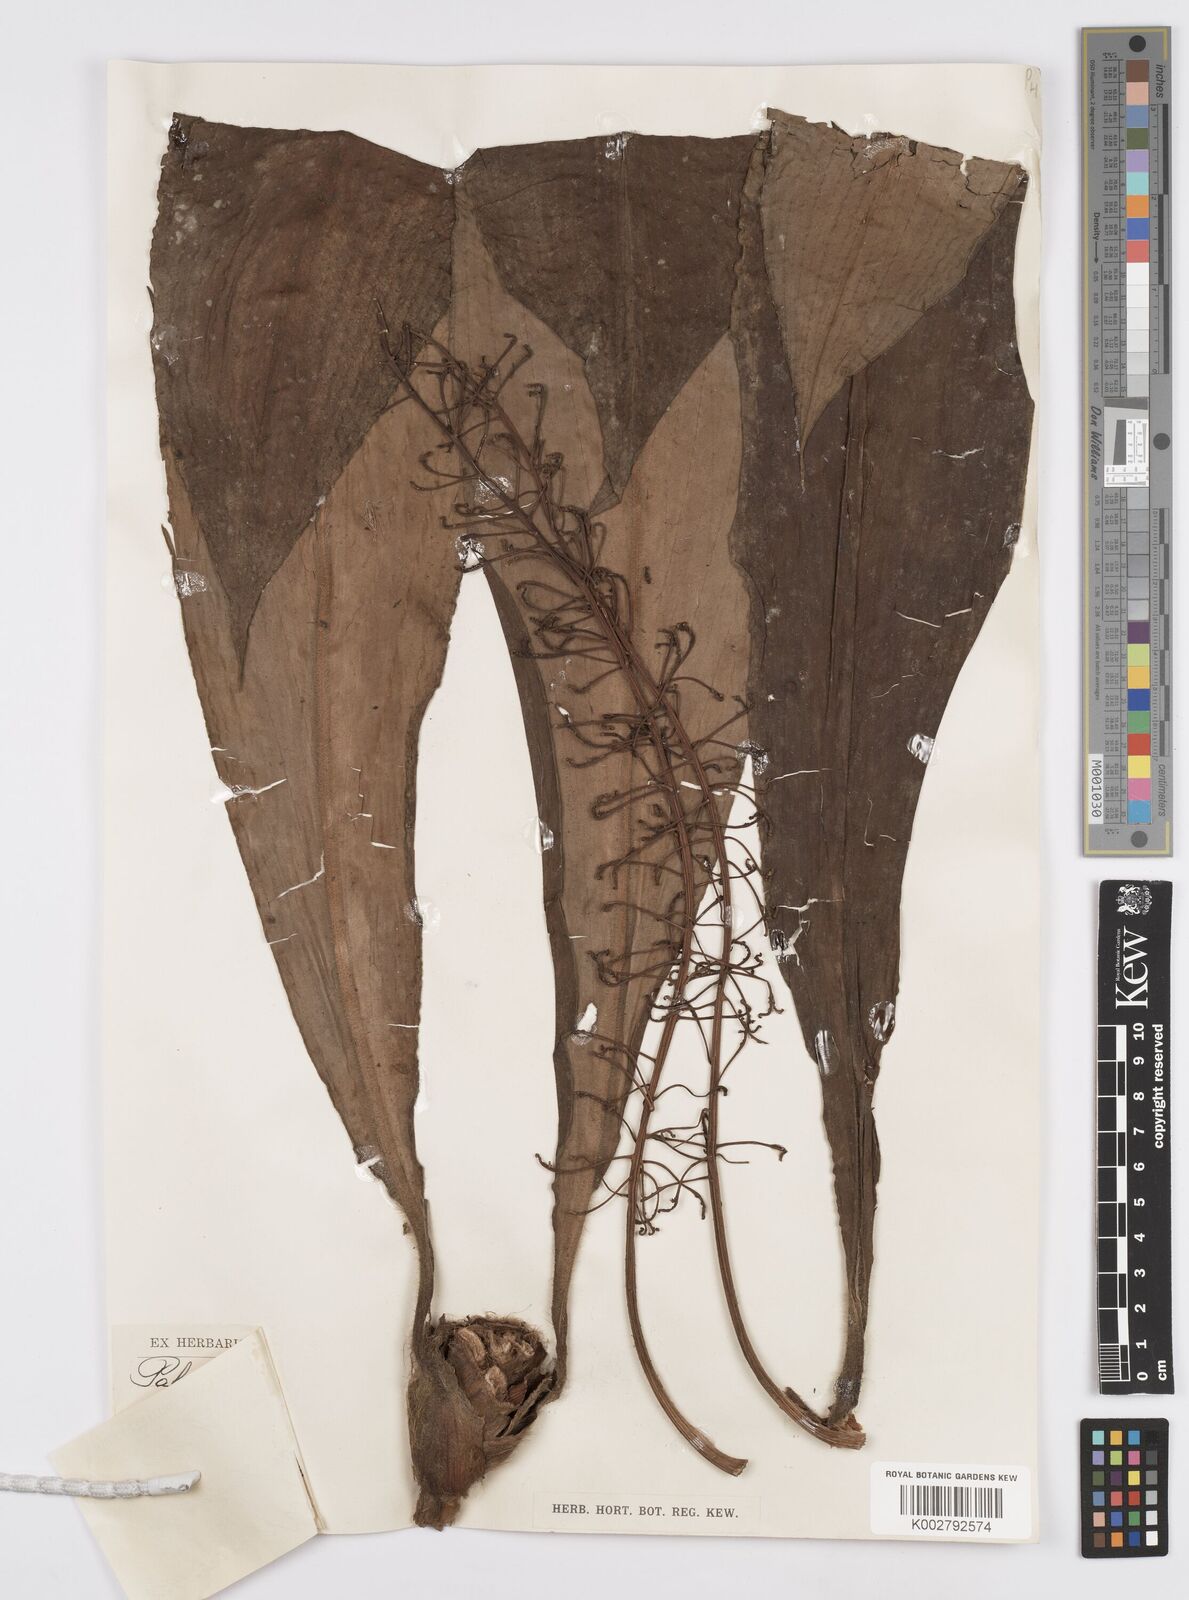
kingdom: Plantae
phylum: Tracheophyta
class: Liliopsida
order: Commelinales
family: Commelinaceae
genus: Palisota
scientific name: Palisota hirsuta
